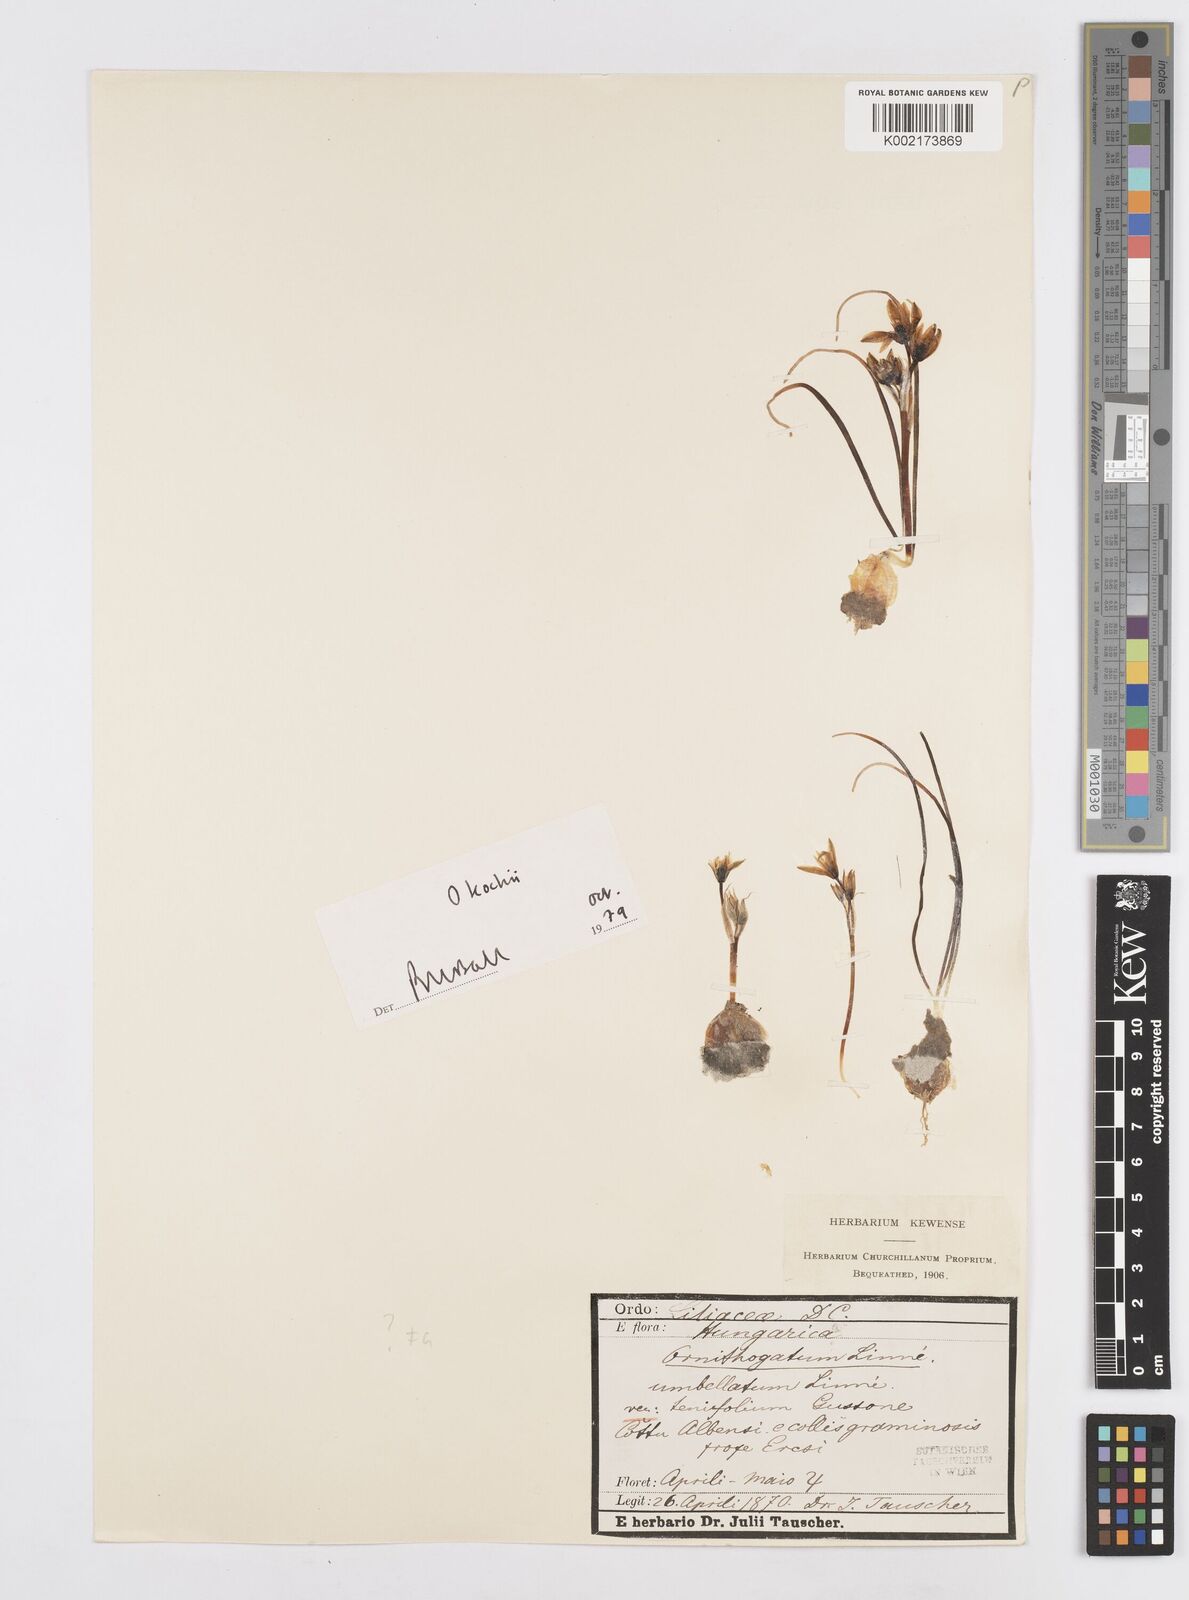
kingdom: Plantae
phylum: Tracheophyta
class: Liliopsida
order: Asparagales
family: Asparagaceae
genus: Ornithogalum
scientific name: Ornithogalum orthophyllum
